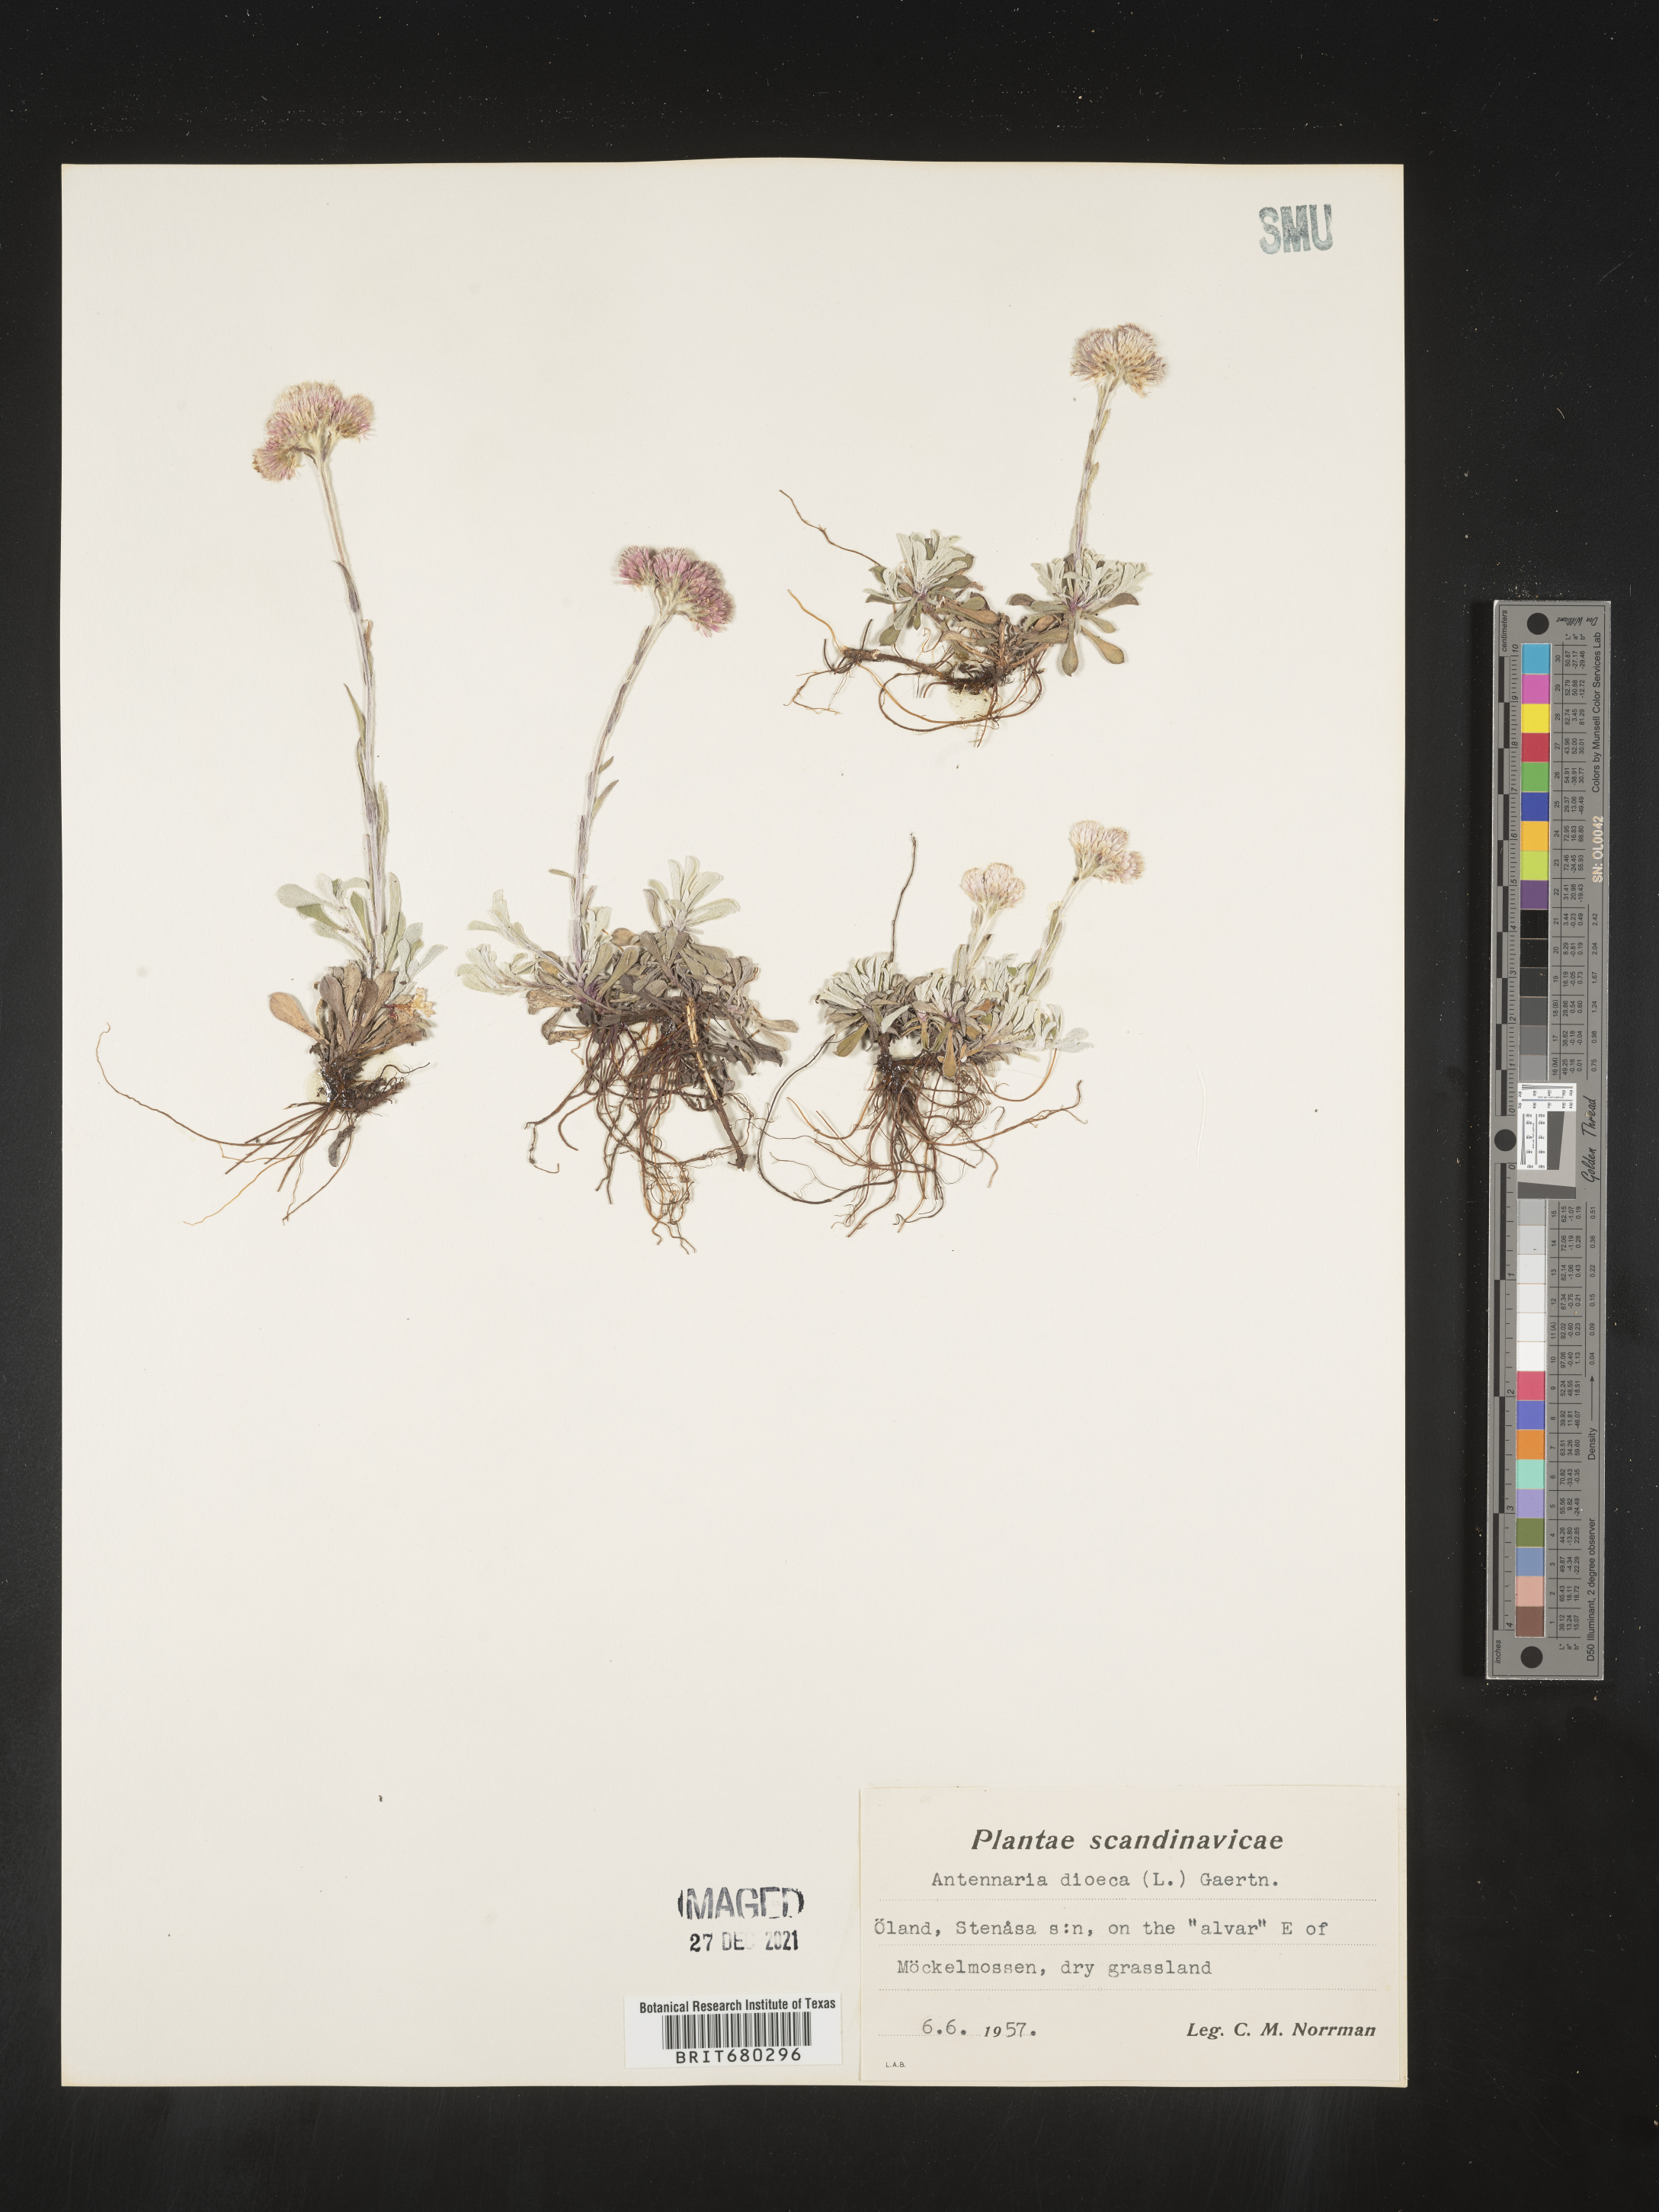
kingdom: Plantae
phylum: Tracheophyta
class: Magnoliopsida
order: Asterales
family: Asteraceae
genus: Antennaria
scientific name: Antennaria dioica
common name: Mountain everlasting
